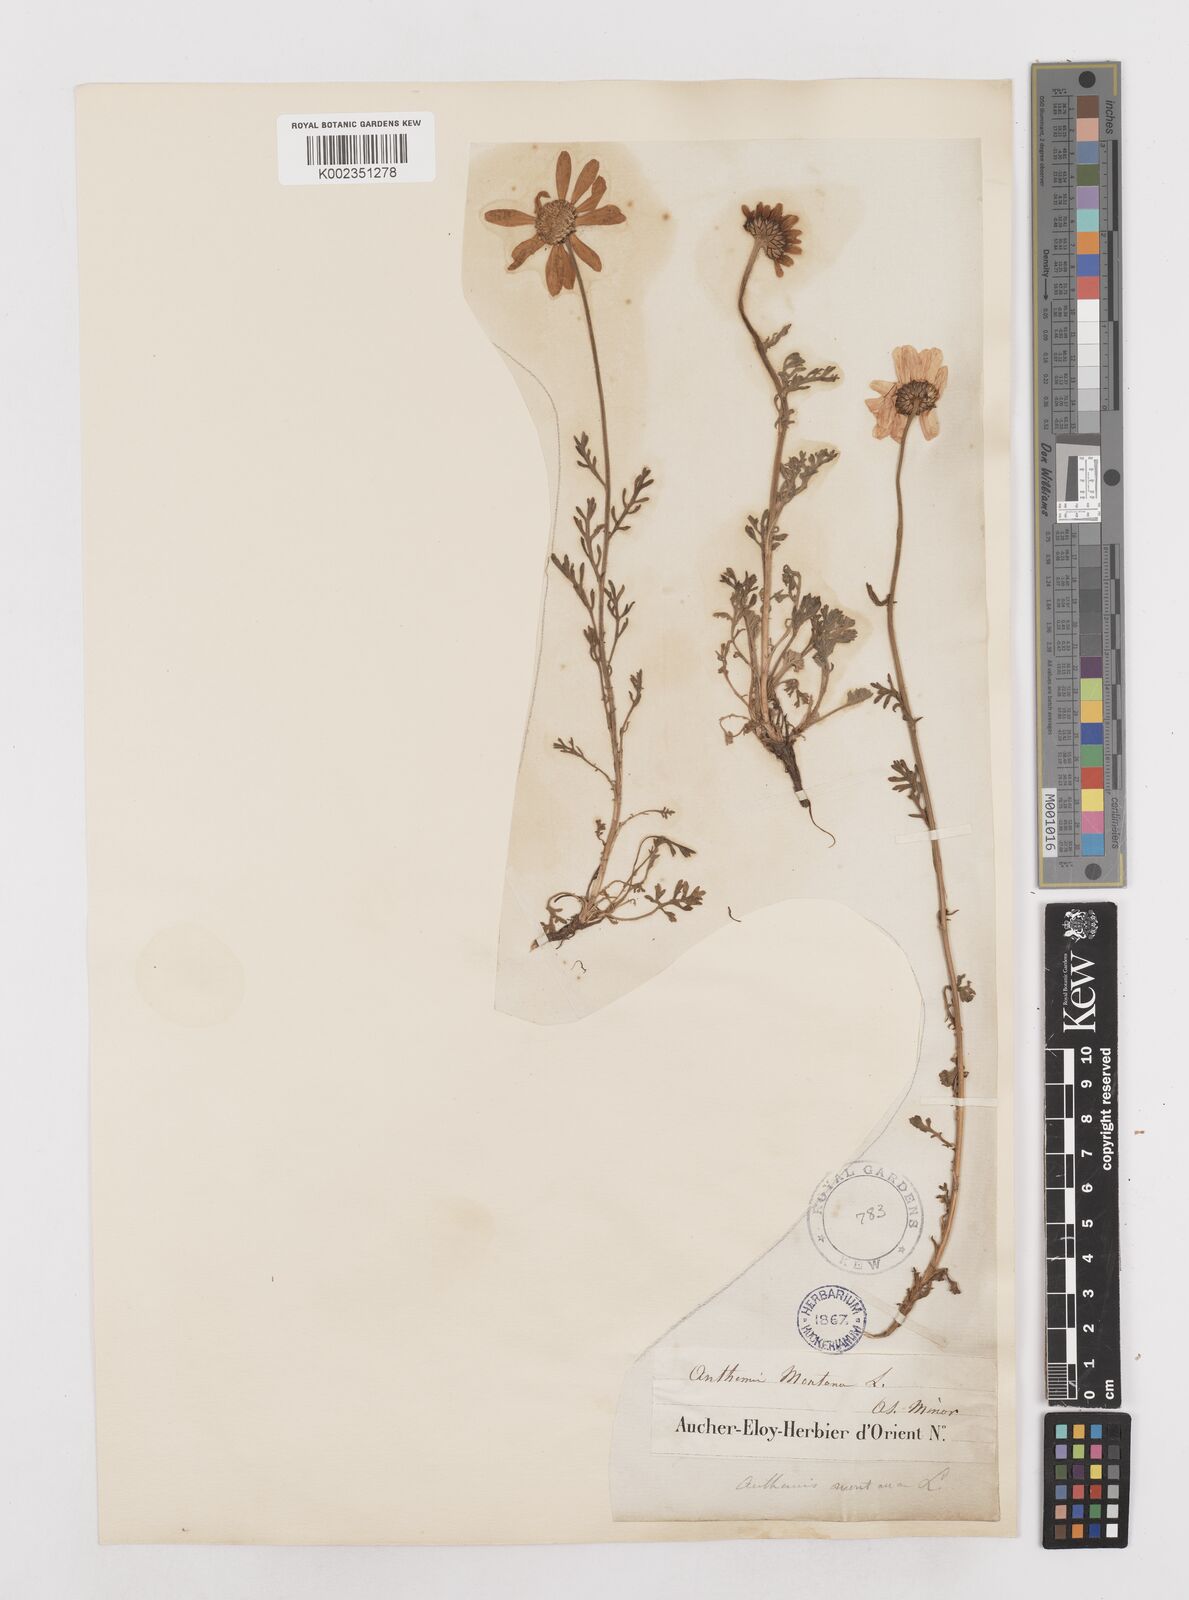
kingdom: Plantae
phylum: Tracheophyta
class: Magnoliopsida
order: Asterales
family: Asteraceae
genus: Anthemis
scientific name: Anthemis cretica
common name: Mountain dog-daisy
